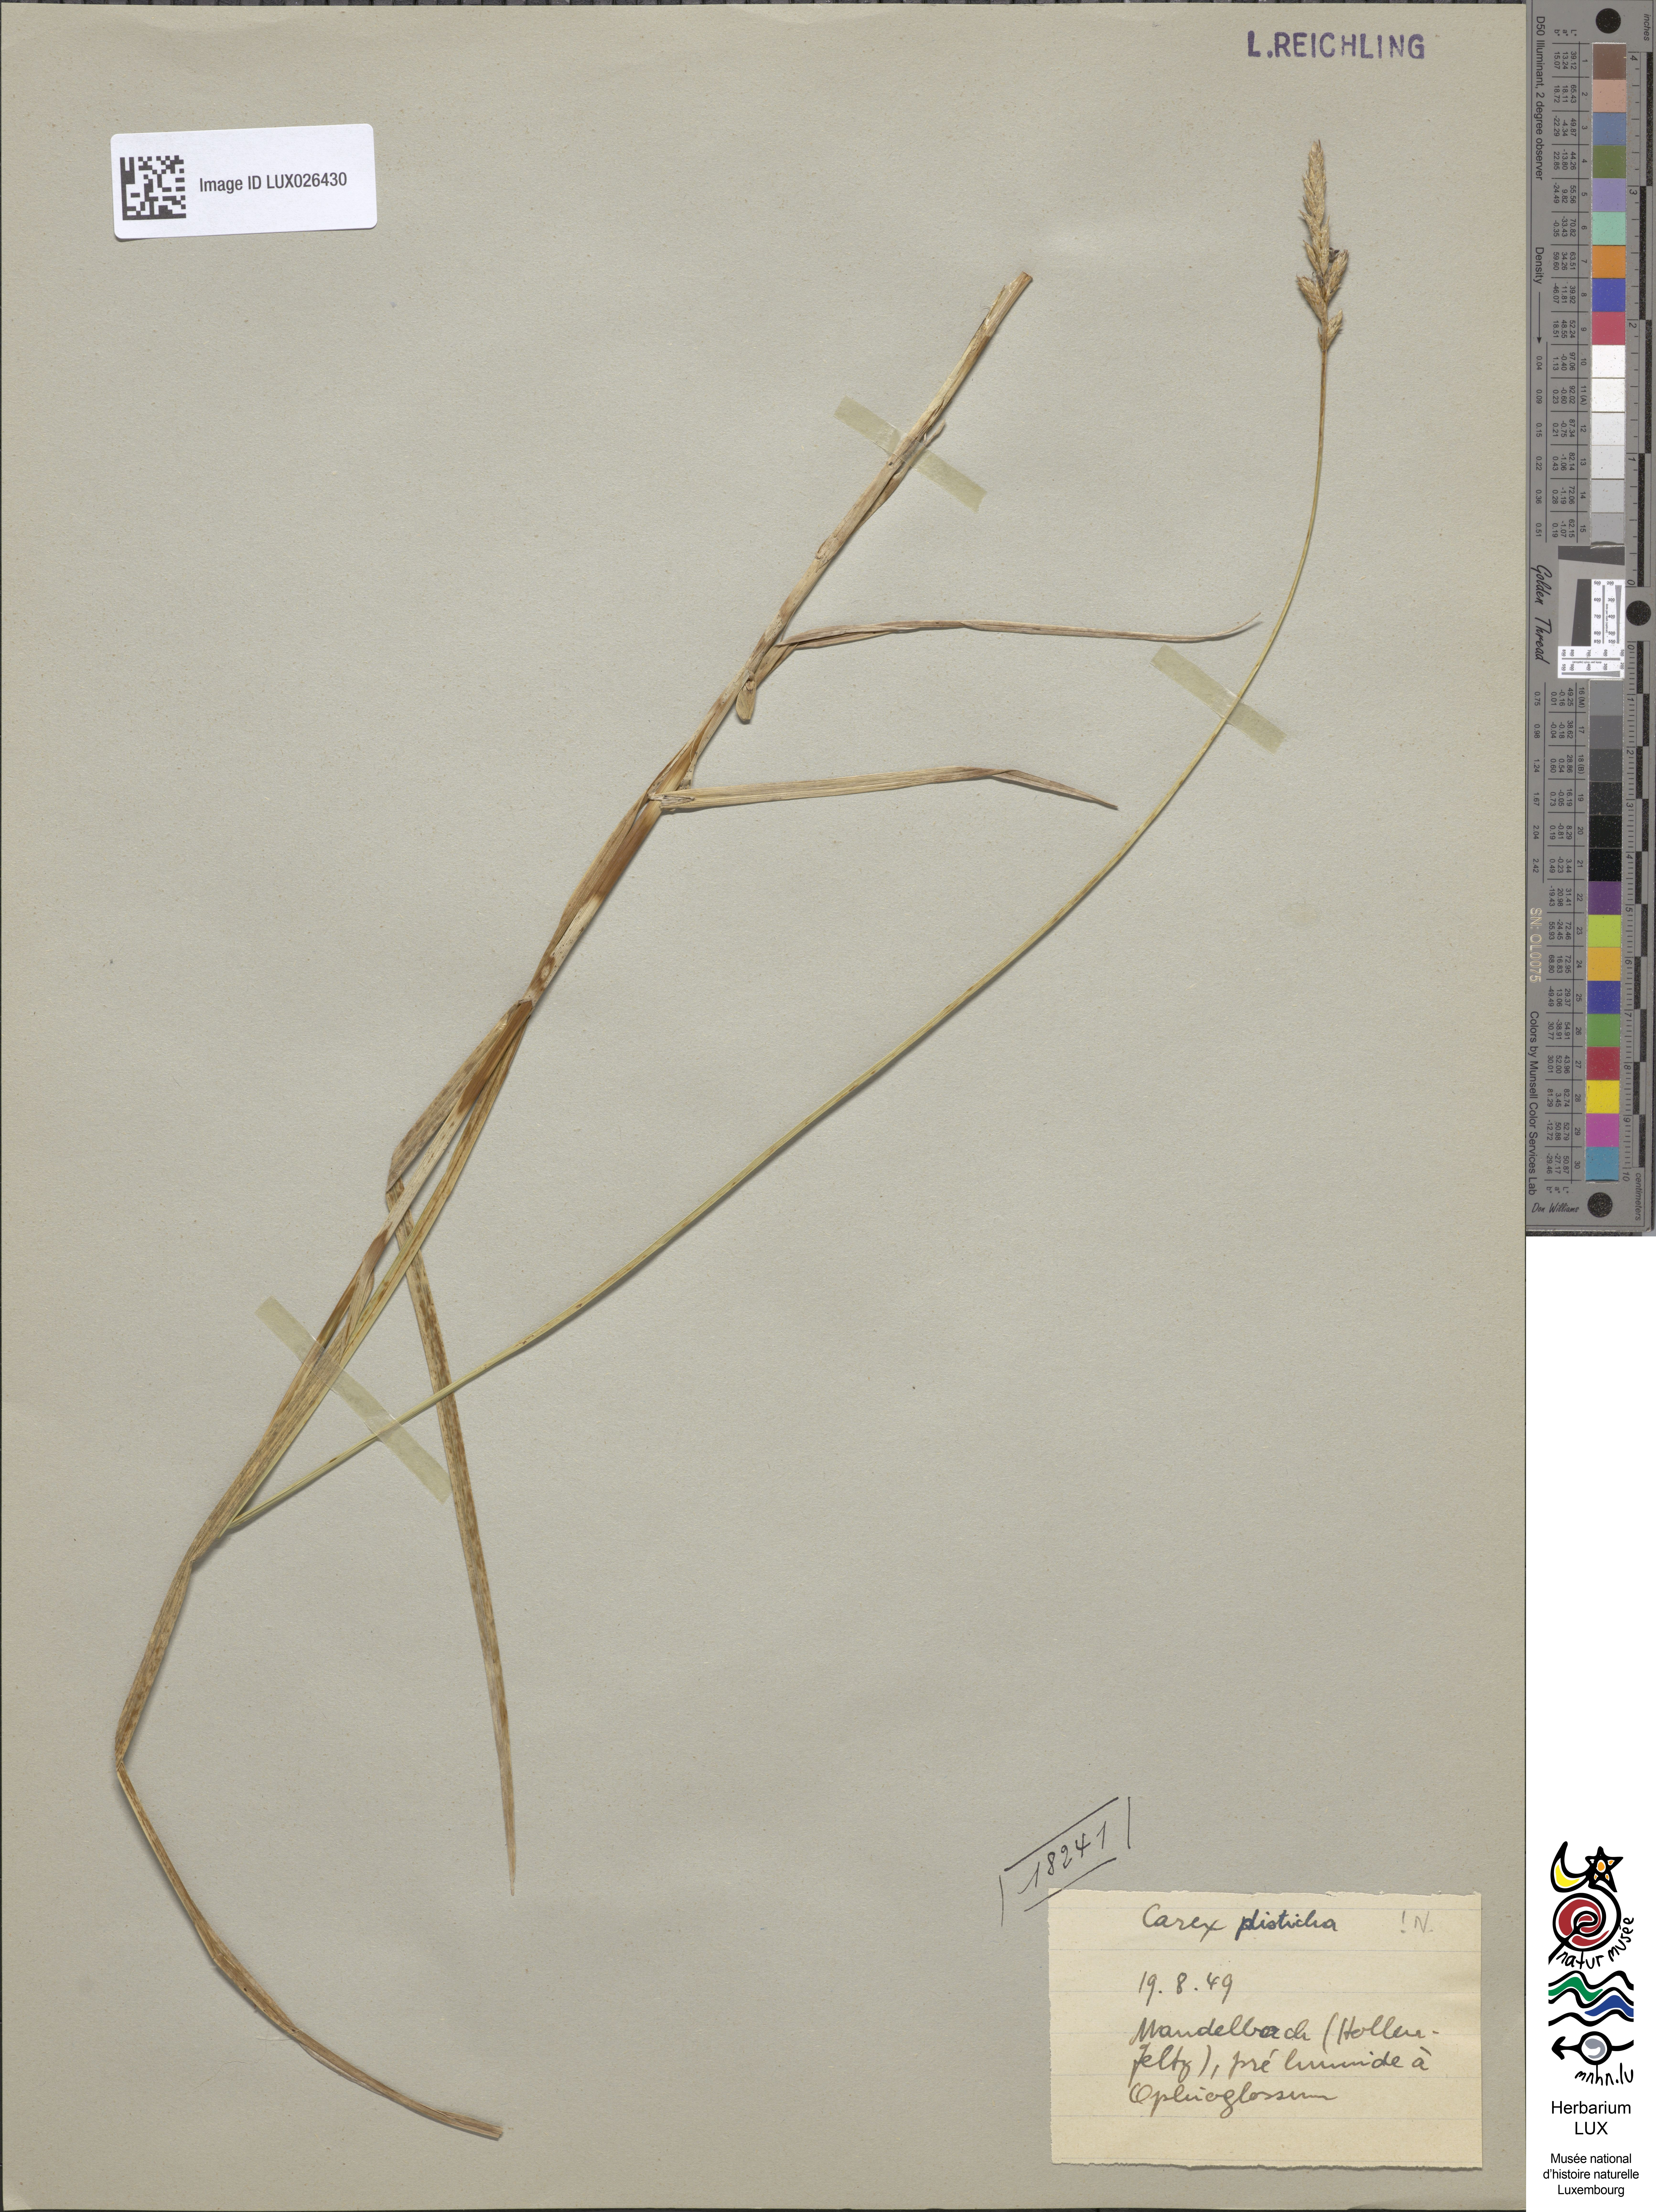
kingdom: Plantae
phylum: Tracheophyta
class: Liliopsida
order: Poales
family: Cyperaceae
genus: Carex
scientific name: Carex disticha
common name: Brown sedge
